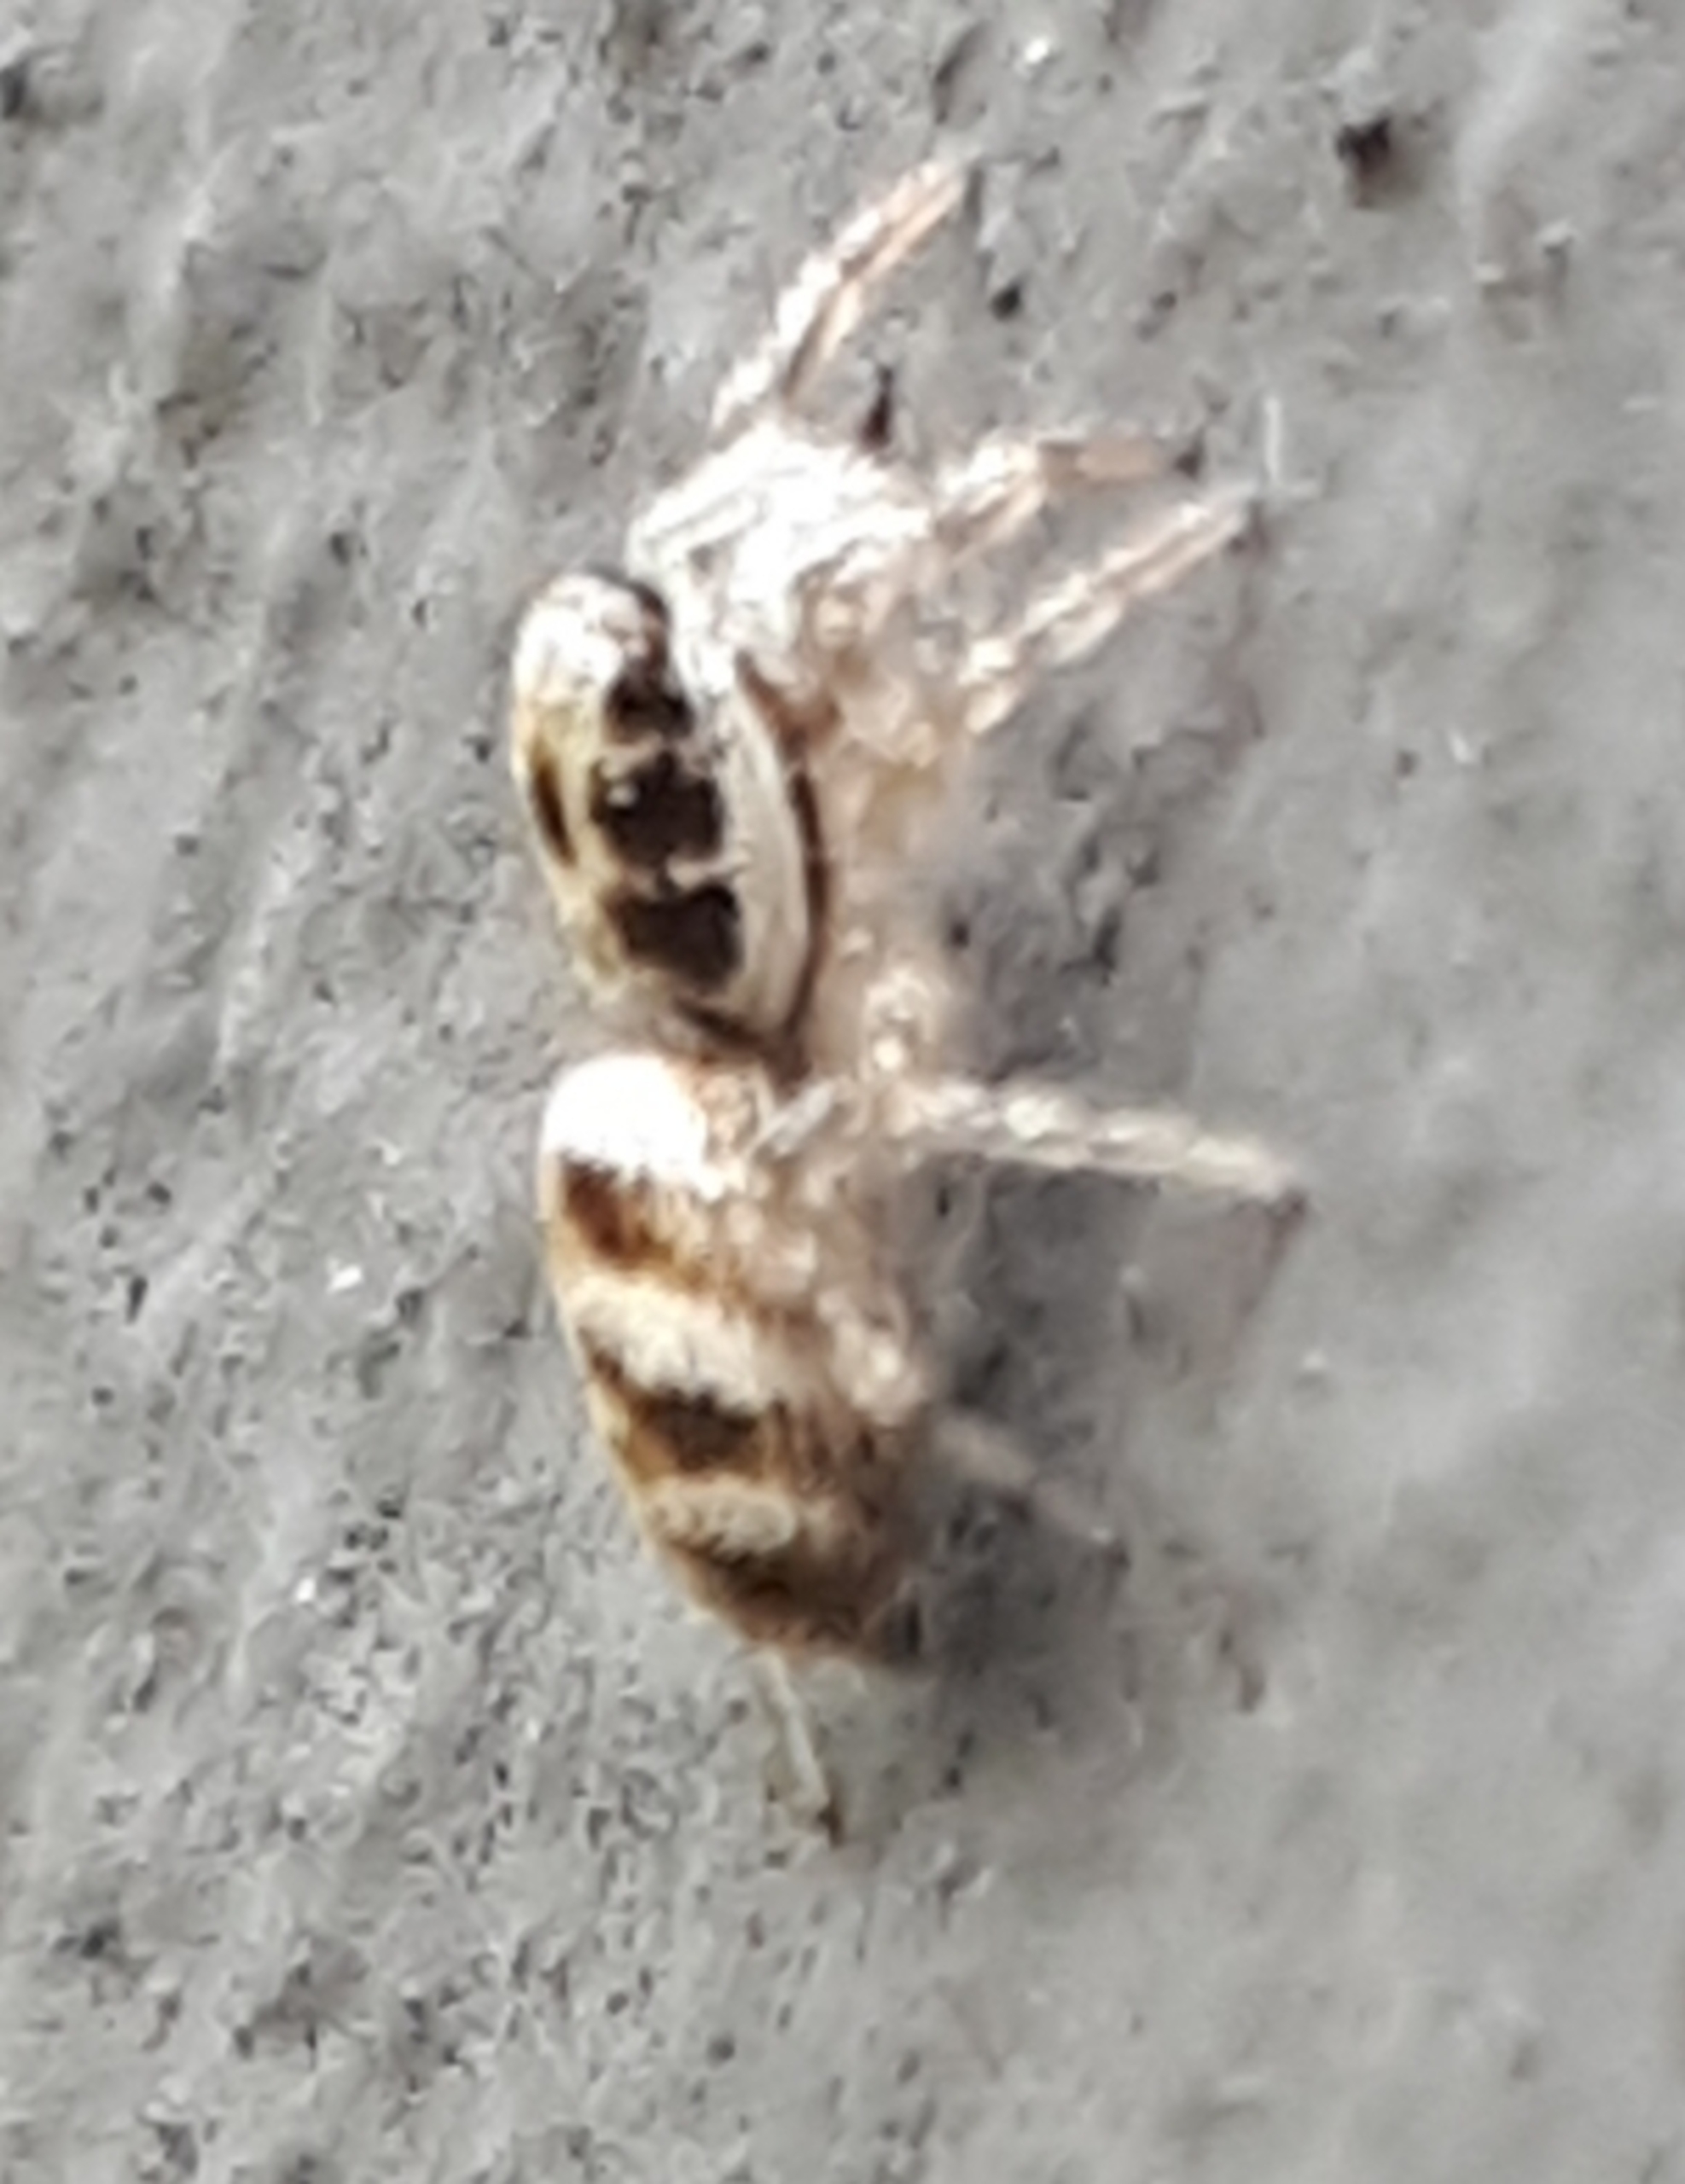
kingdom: Animalia
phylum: Arthropoda
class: Arachnida
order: Araneae
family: Salticidae
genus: Salticus
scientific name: Salticus scenicus
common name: Almindelig zebraedderkop
